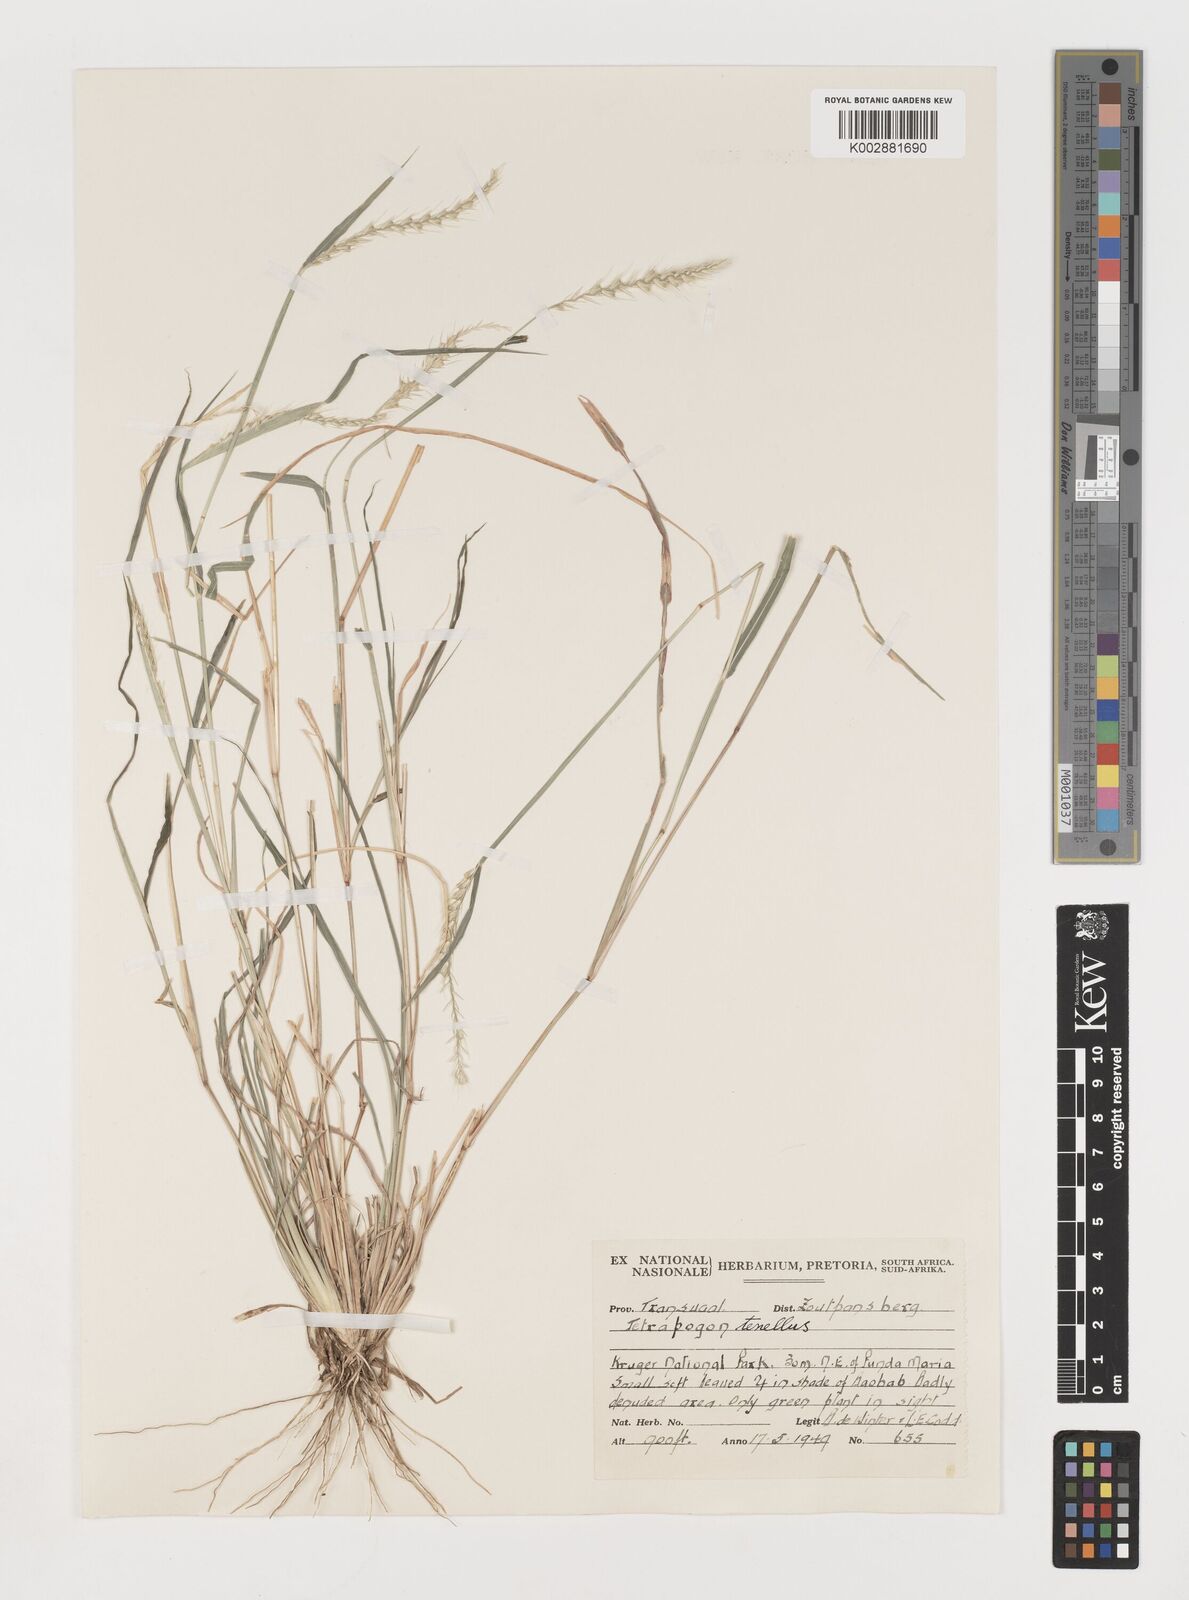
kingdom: Plantae
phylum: Tracheophyta
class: Liliopsida
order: Poales
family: Poaceae
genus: Tetrapogon
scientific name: Tetrapogon tenellus
